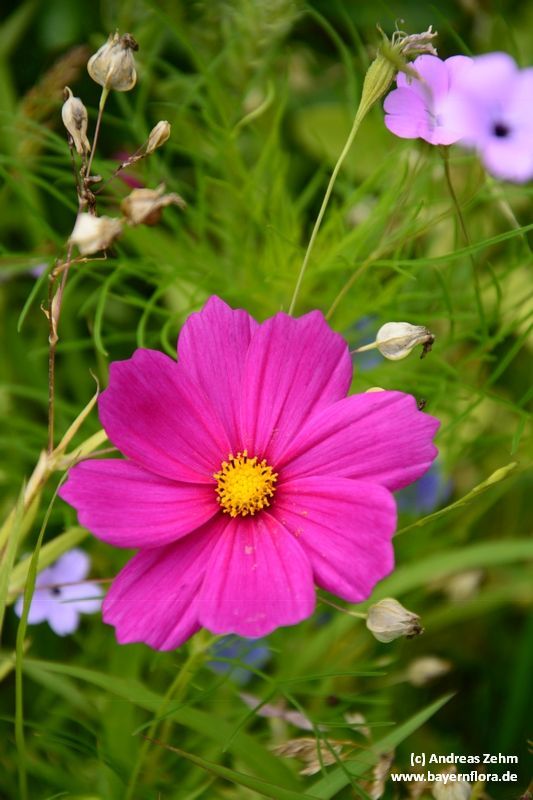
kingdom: Plantae
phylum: Tracheophyta
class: Magnoliopsida
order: Asterales
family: Asteraceae
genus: Cosmos
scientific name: Cosmos bipinnatus
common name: Garden cosmos
